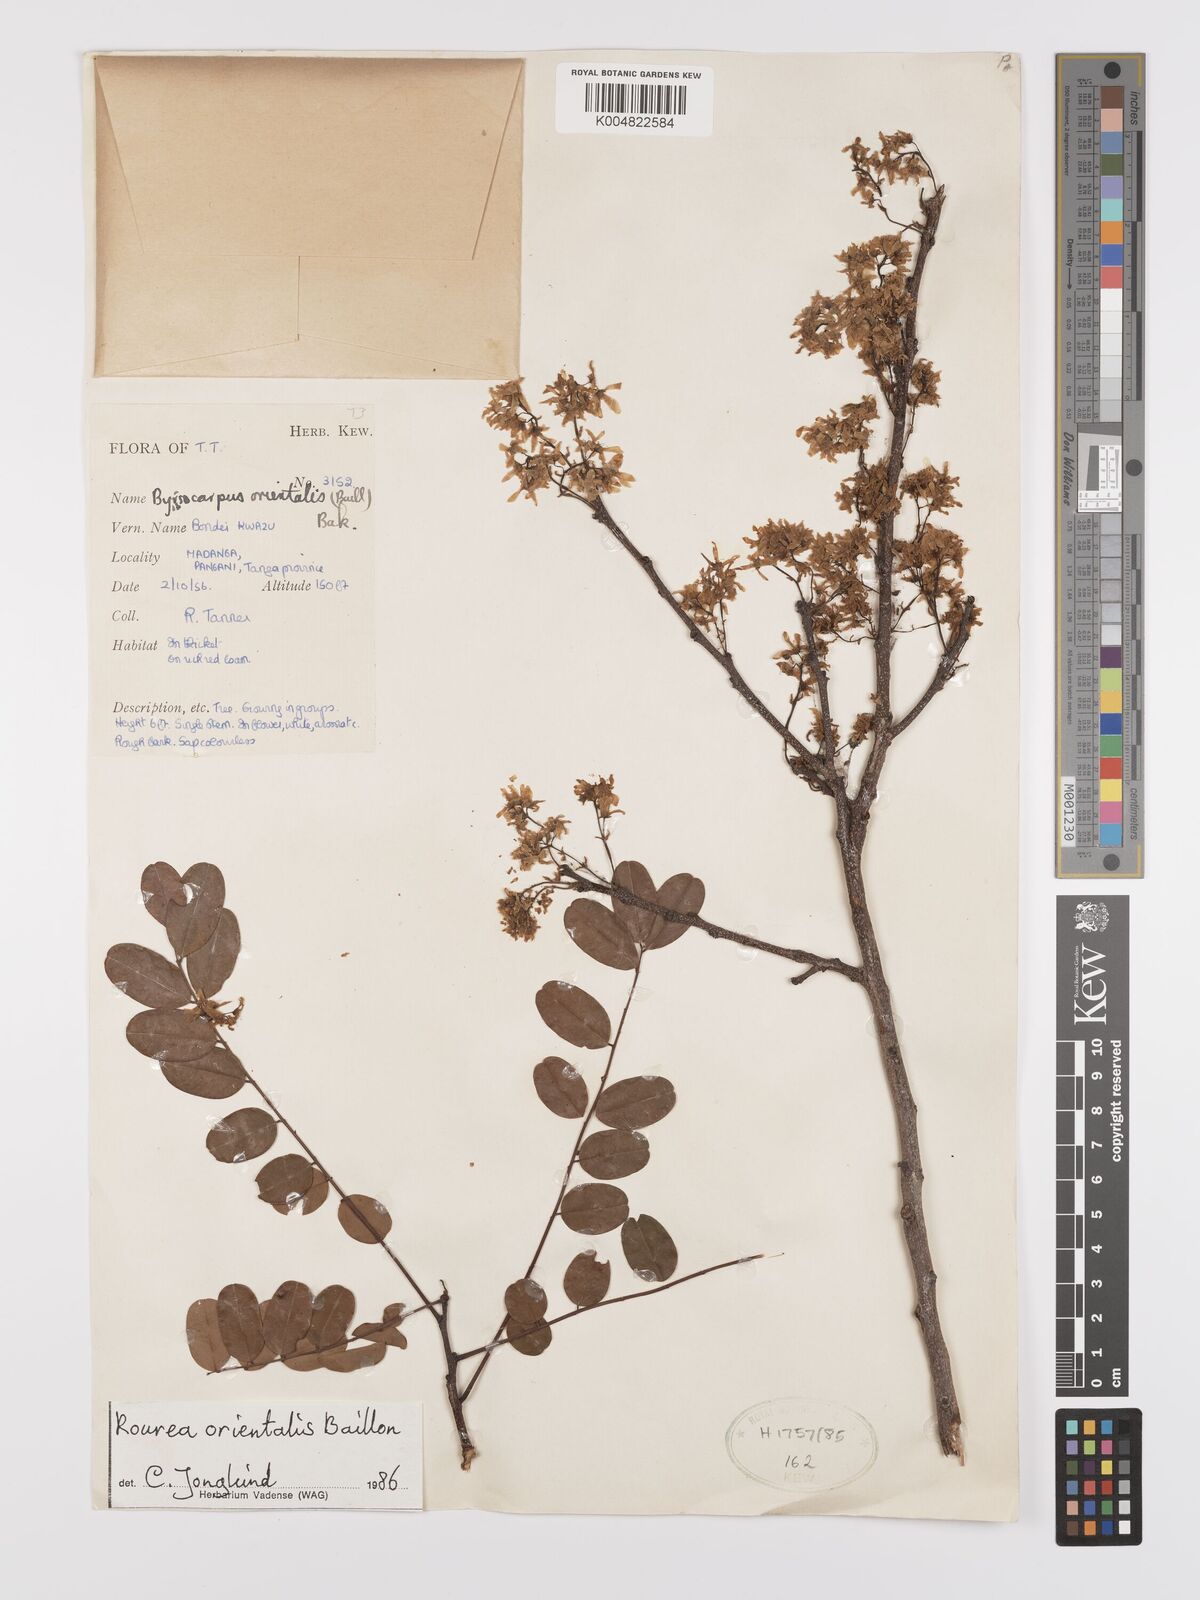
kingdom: Plantae
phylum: Tracheophyta
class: Magnoliopsida
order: Oxalidales
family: Connaraceae
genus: Rourea
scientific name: Rourea orientalis
